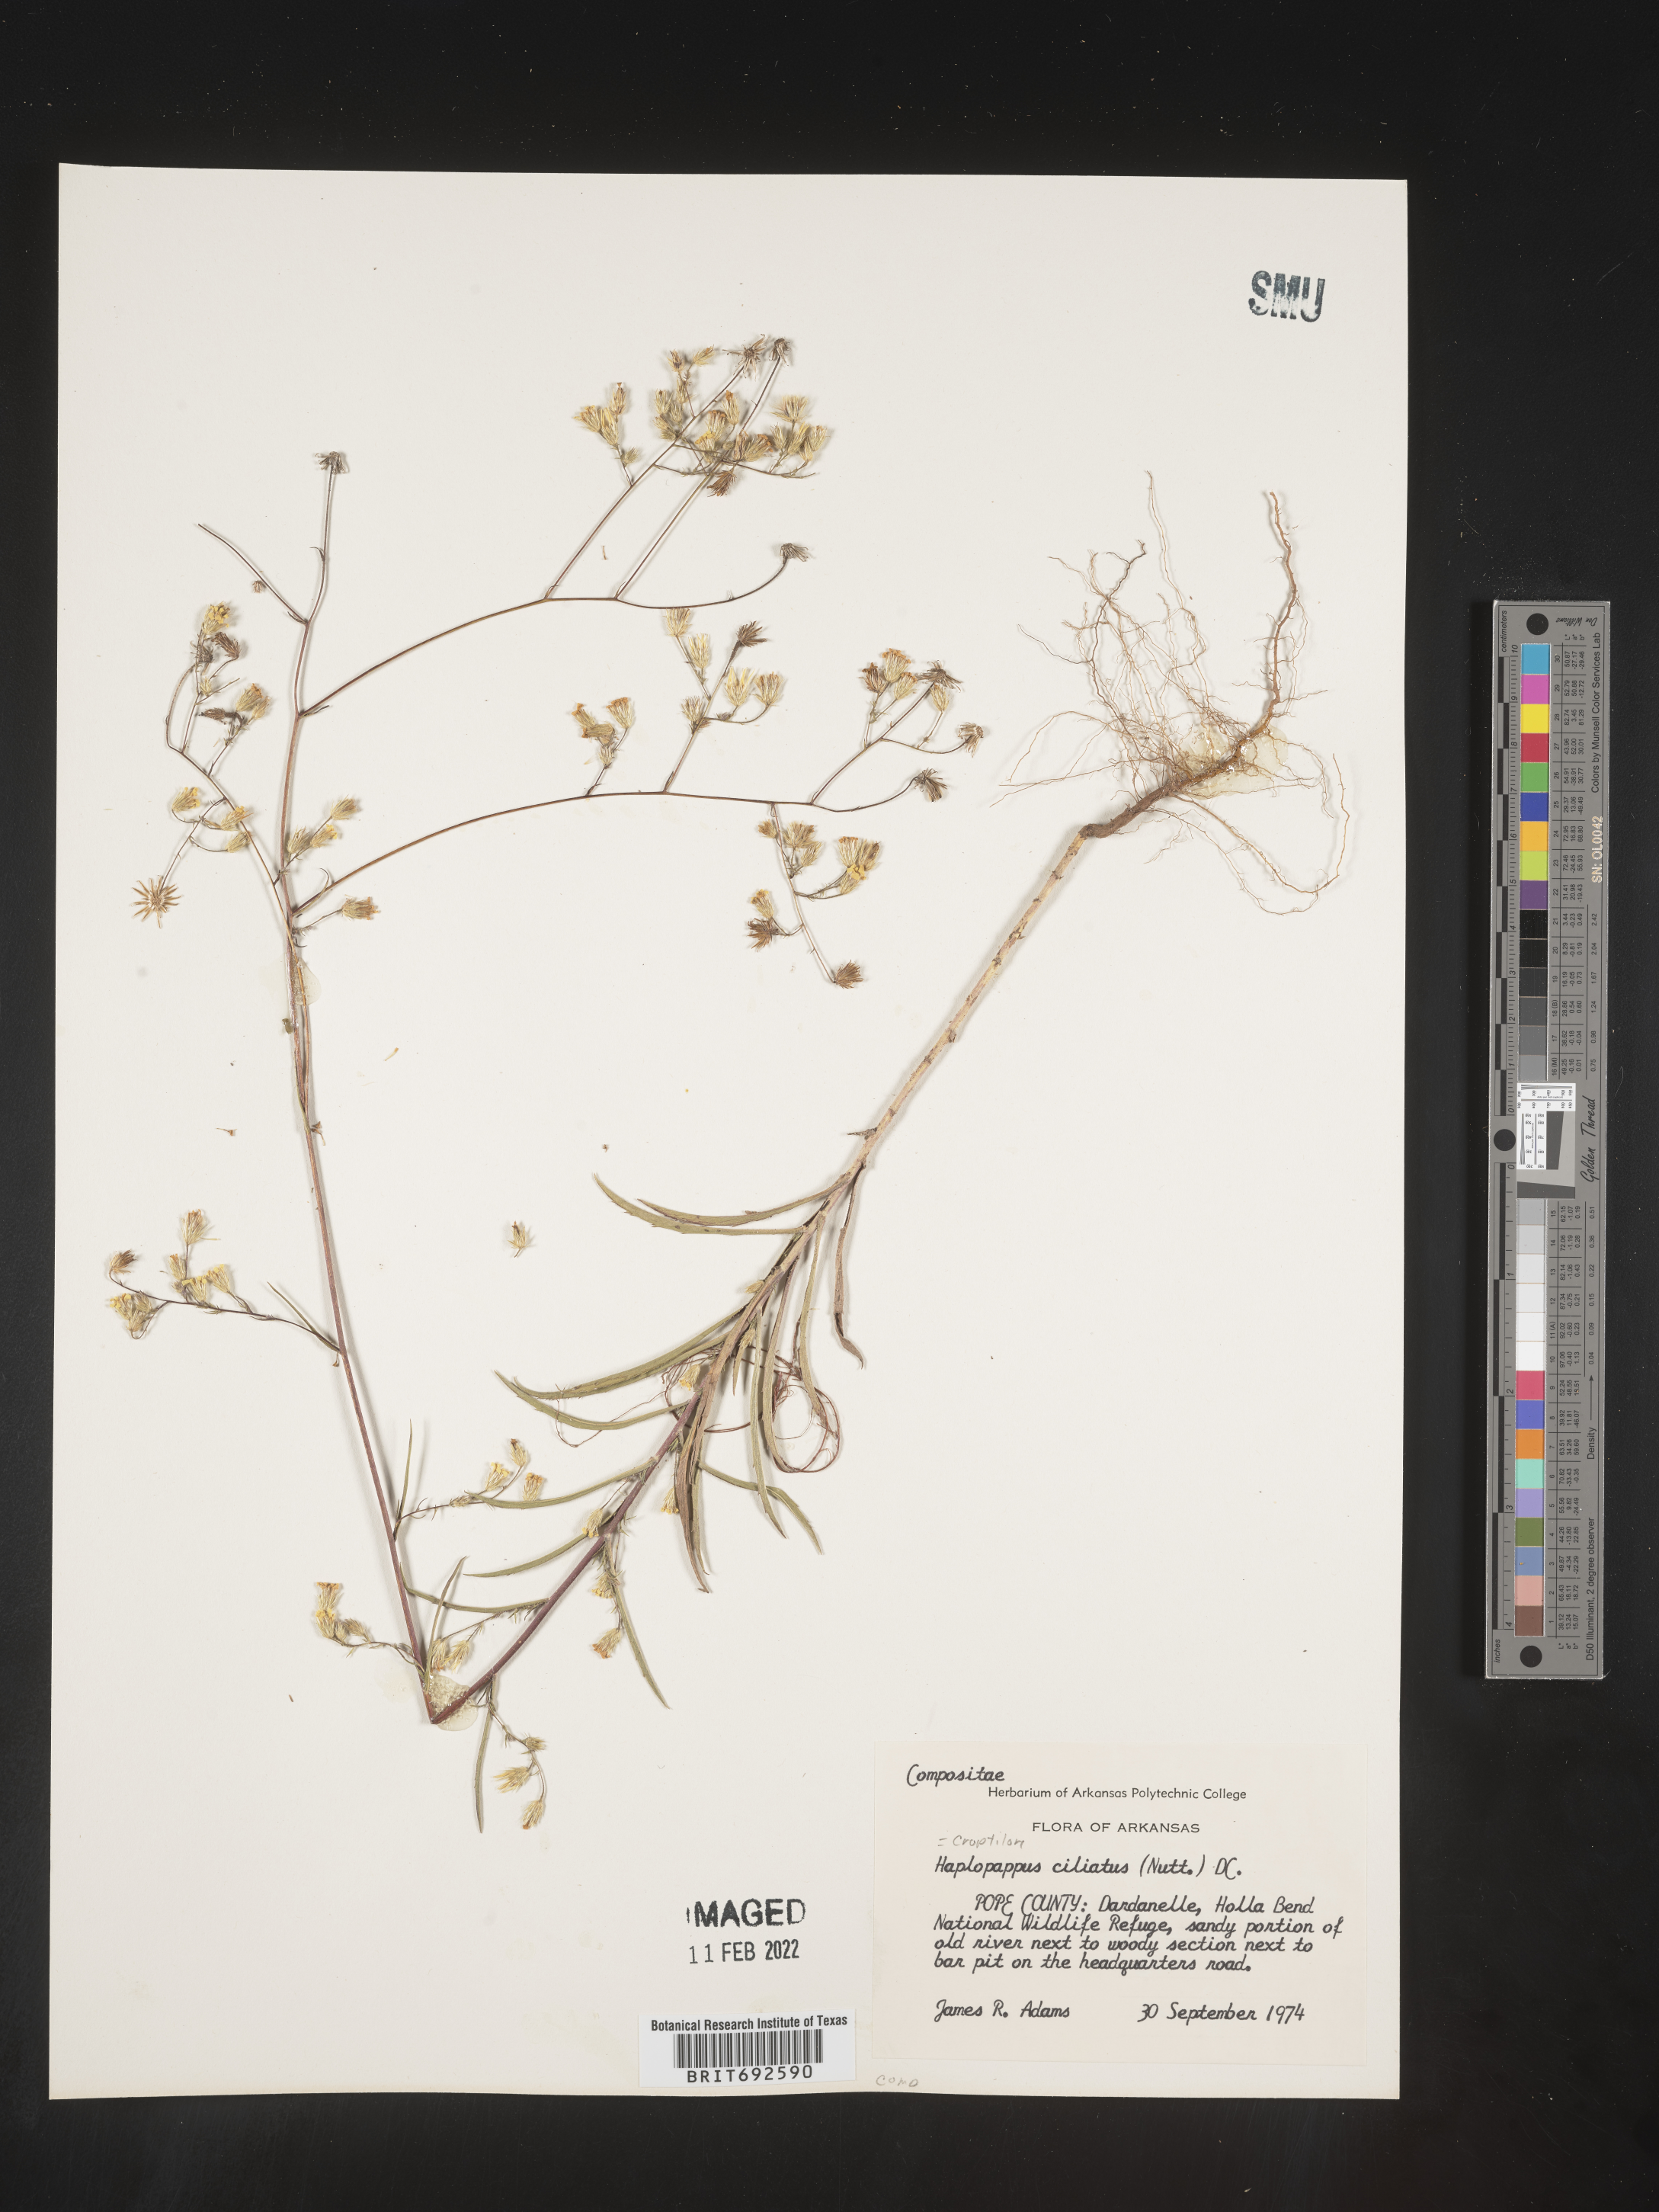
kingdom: Plantae
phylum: Tracheophyta
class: Magnoliopsida
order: Asterales
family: Asteraceae
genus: Croptilon
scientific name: Croptilon divaricatum
